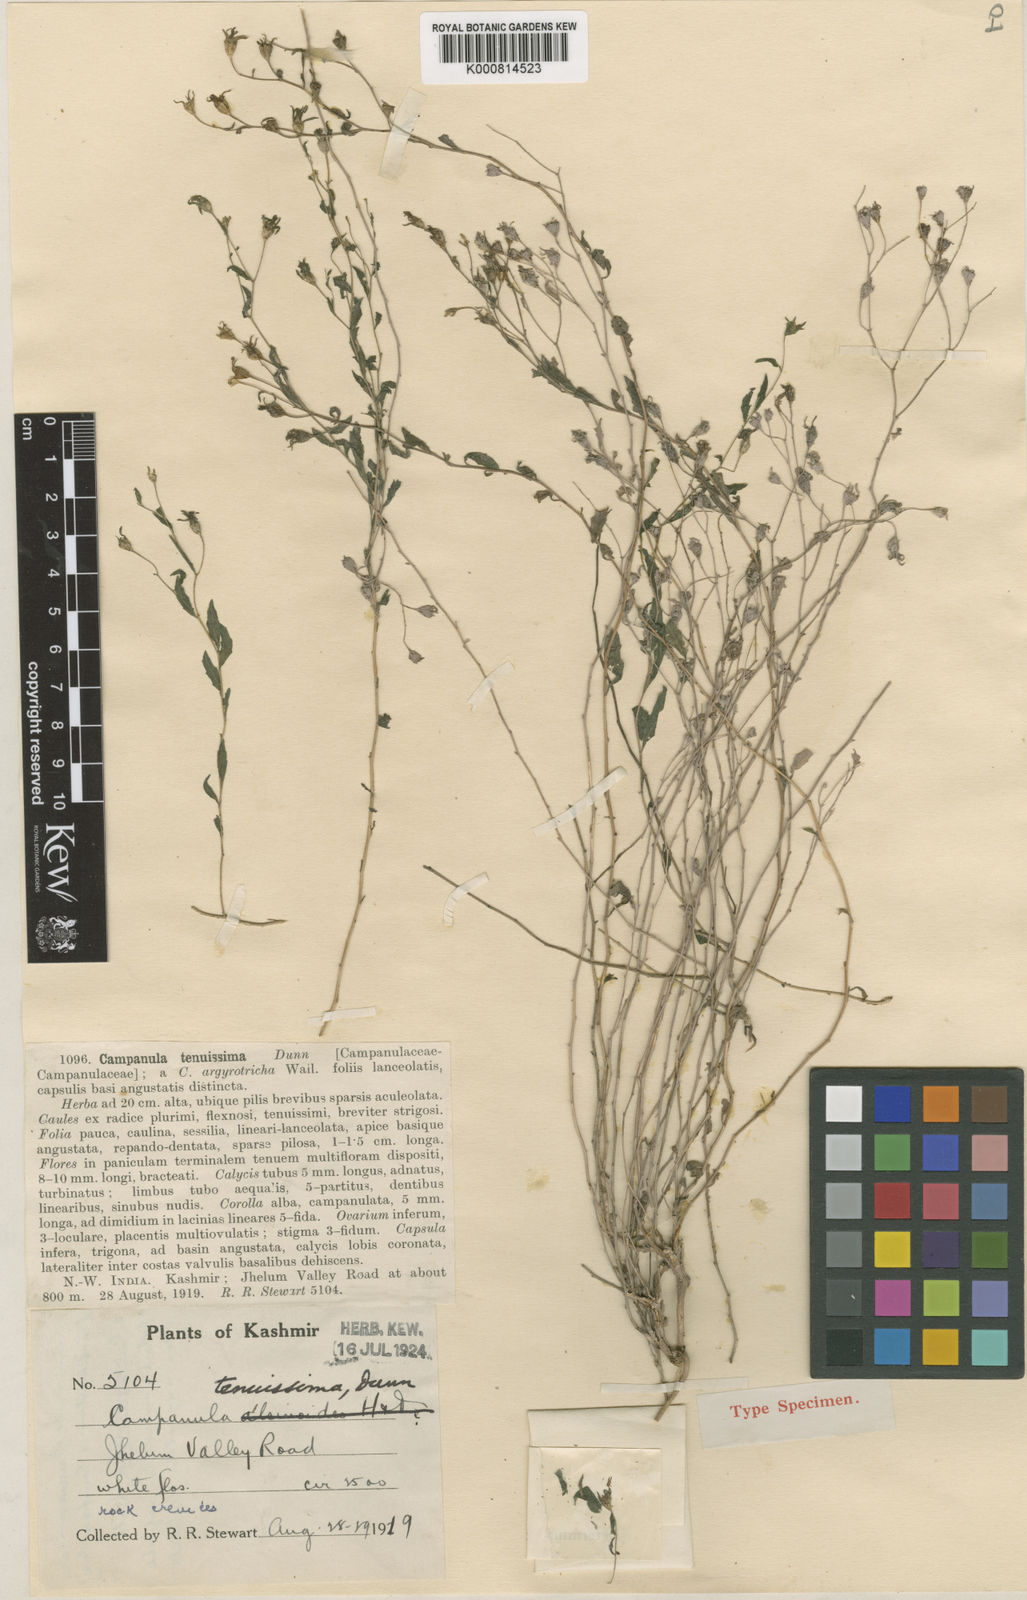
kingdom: Plantae
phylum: Tracheophyta
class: Magnoliopsida
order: Asterales
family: Campanulaceae
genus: Campanula
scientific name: Campanula tenuissima
